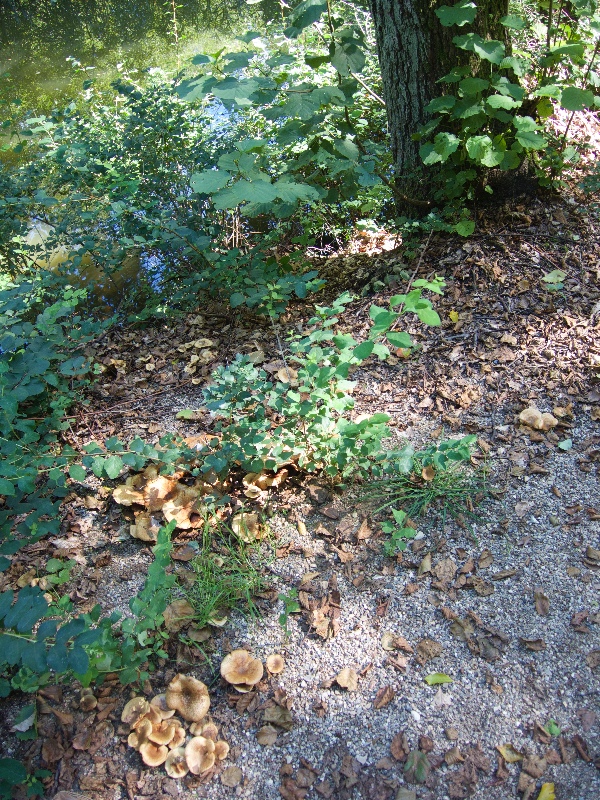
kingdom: Fungi
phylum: Basidiomycota
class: Agaricomycetes
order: Boletales
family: Paxillaceae
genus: Paxillus
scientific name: Paxillus rubicundulus
